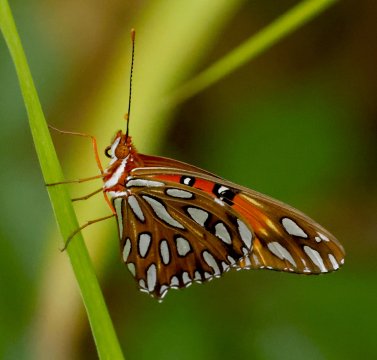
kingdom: Animalia
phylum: Arthropoda
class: Insecta
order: Lepidoptera
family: Nymphalidae
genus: Dione
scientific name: Dione vanillae
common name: Gulf Fritillary
